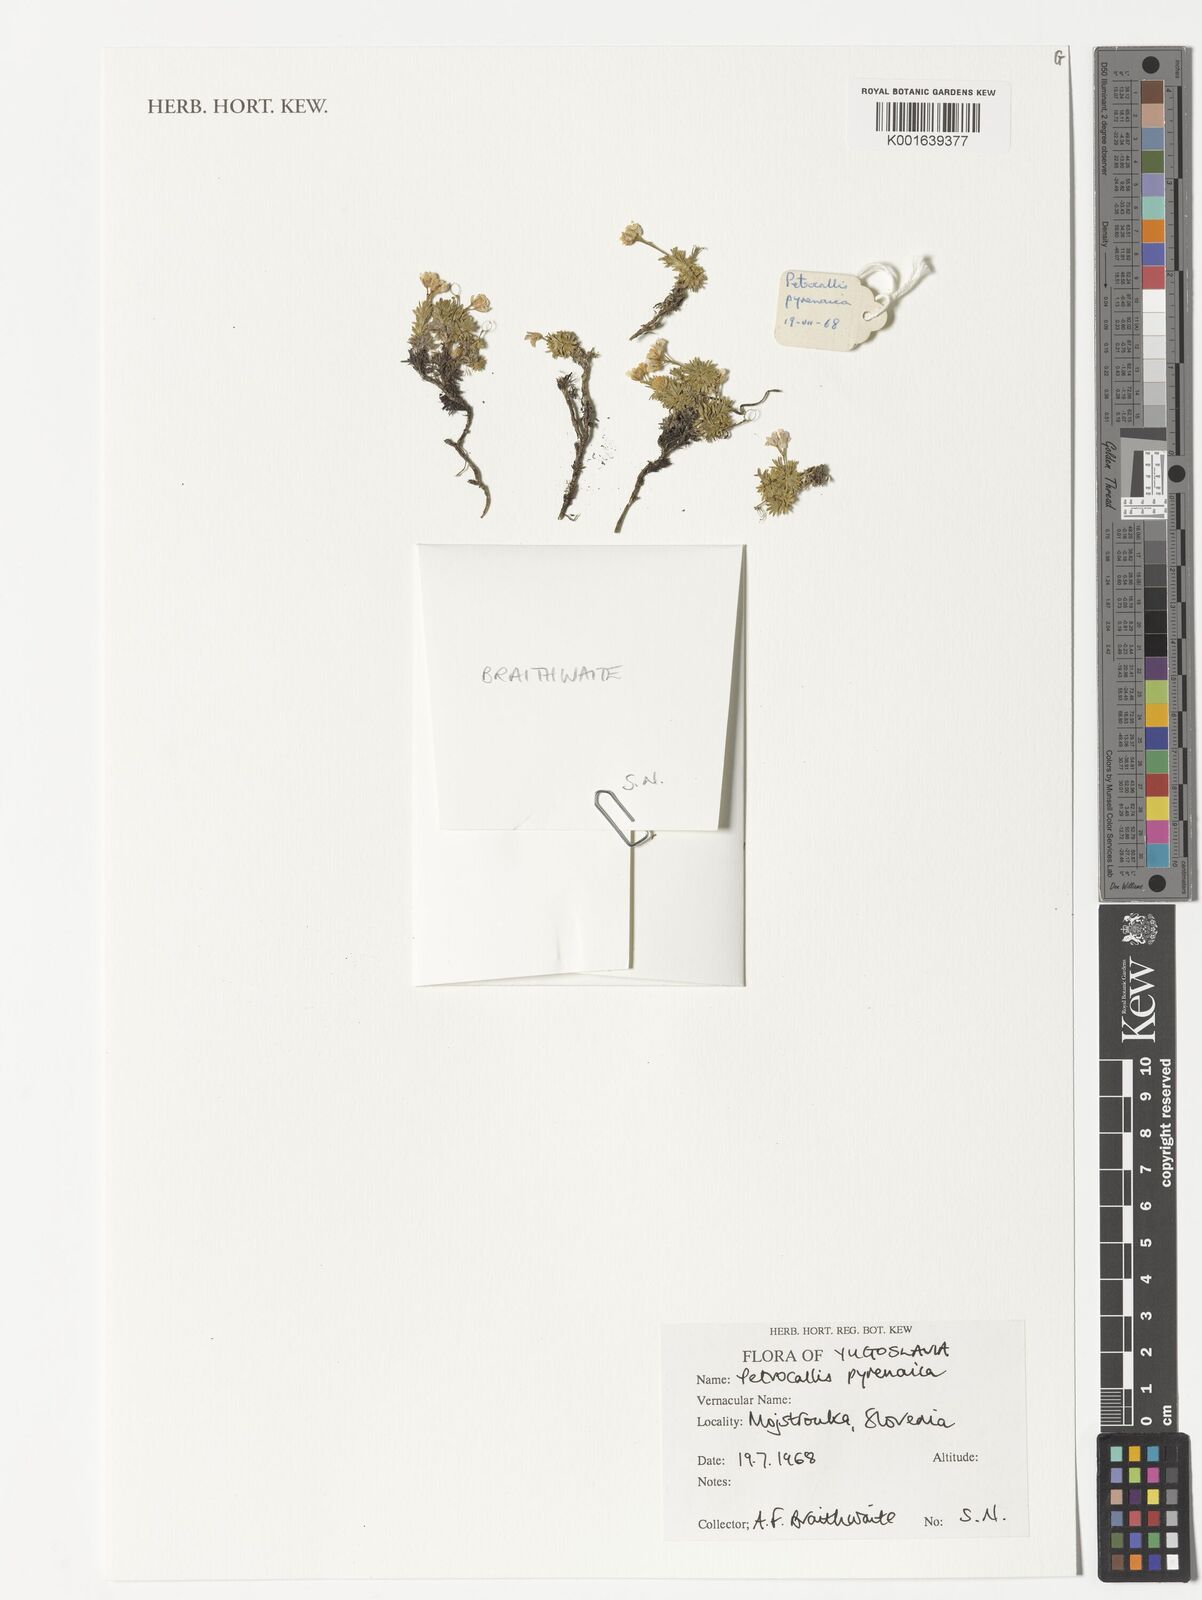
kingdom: Plantae
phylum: Tracheophyta
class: Magnoliopsida
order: Brassicales
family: Brassicaceae
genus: Petrocallis
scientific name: Petrocallis pyrenaica
